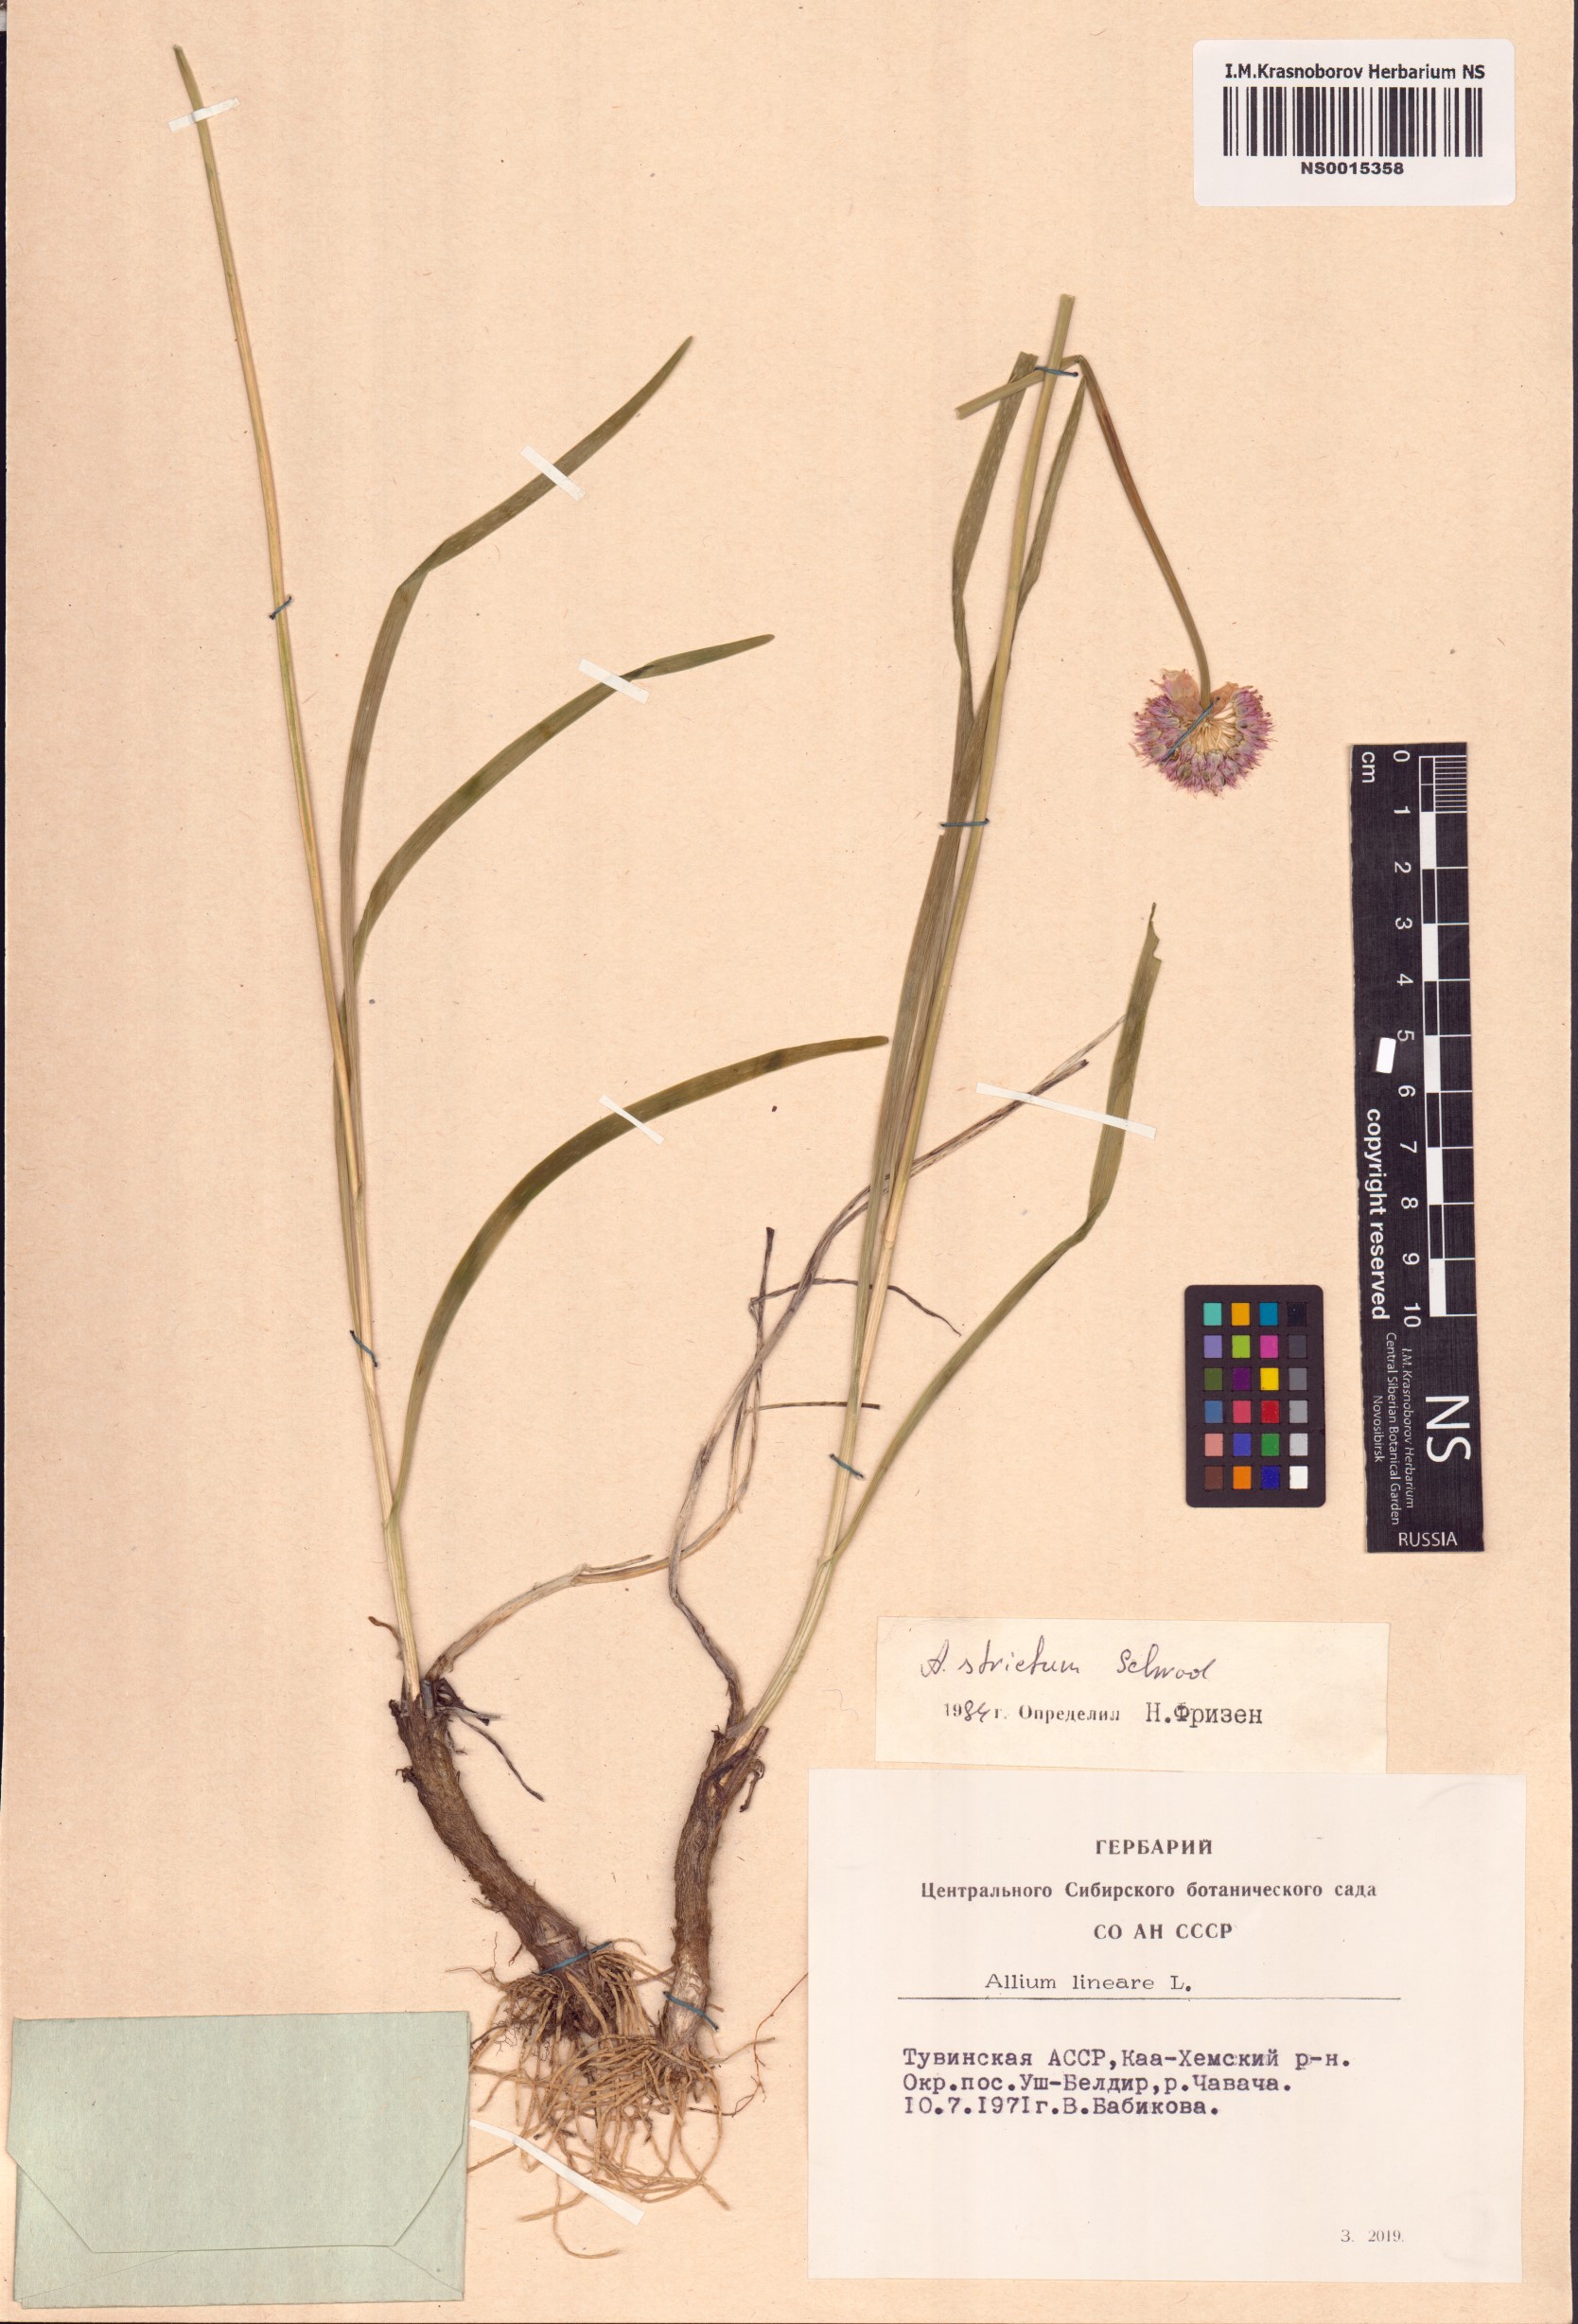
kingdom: Plantae
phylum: Tracheophyta
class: Liliopsida
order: Asparagales
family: Amaryllidaceae
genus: Allium
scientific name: Allium strictum
